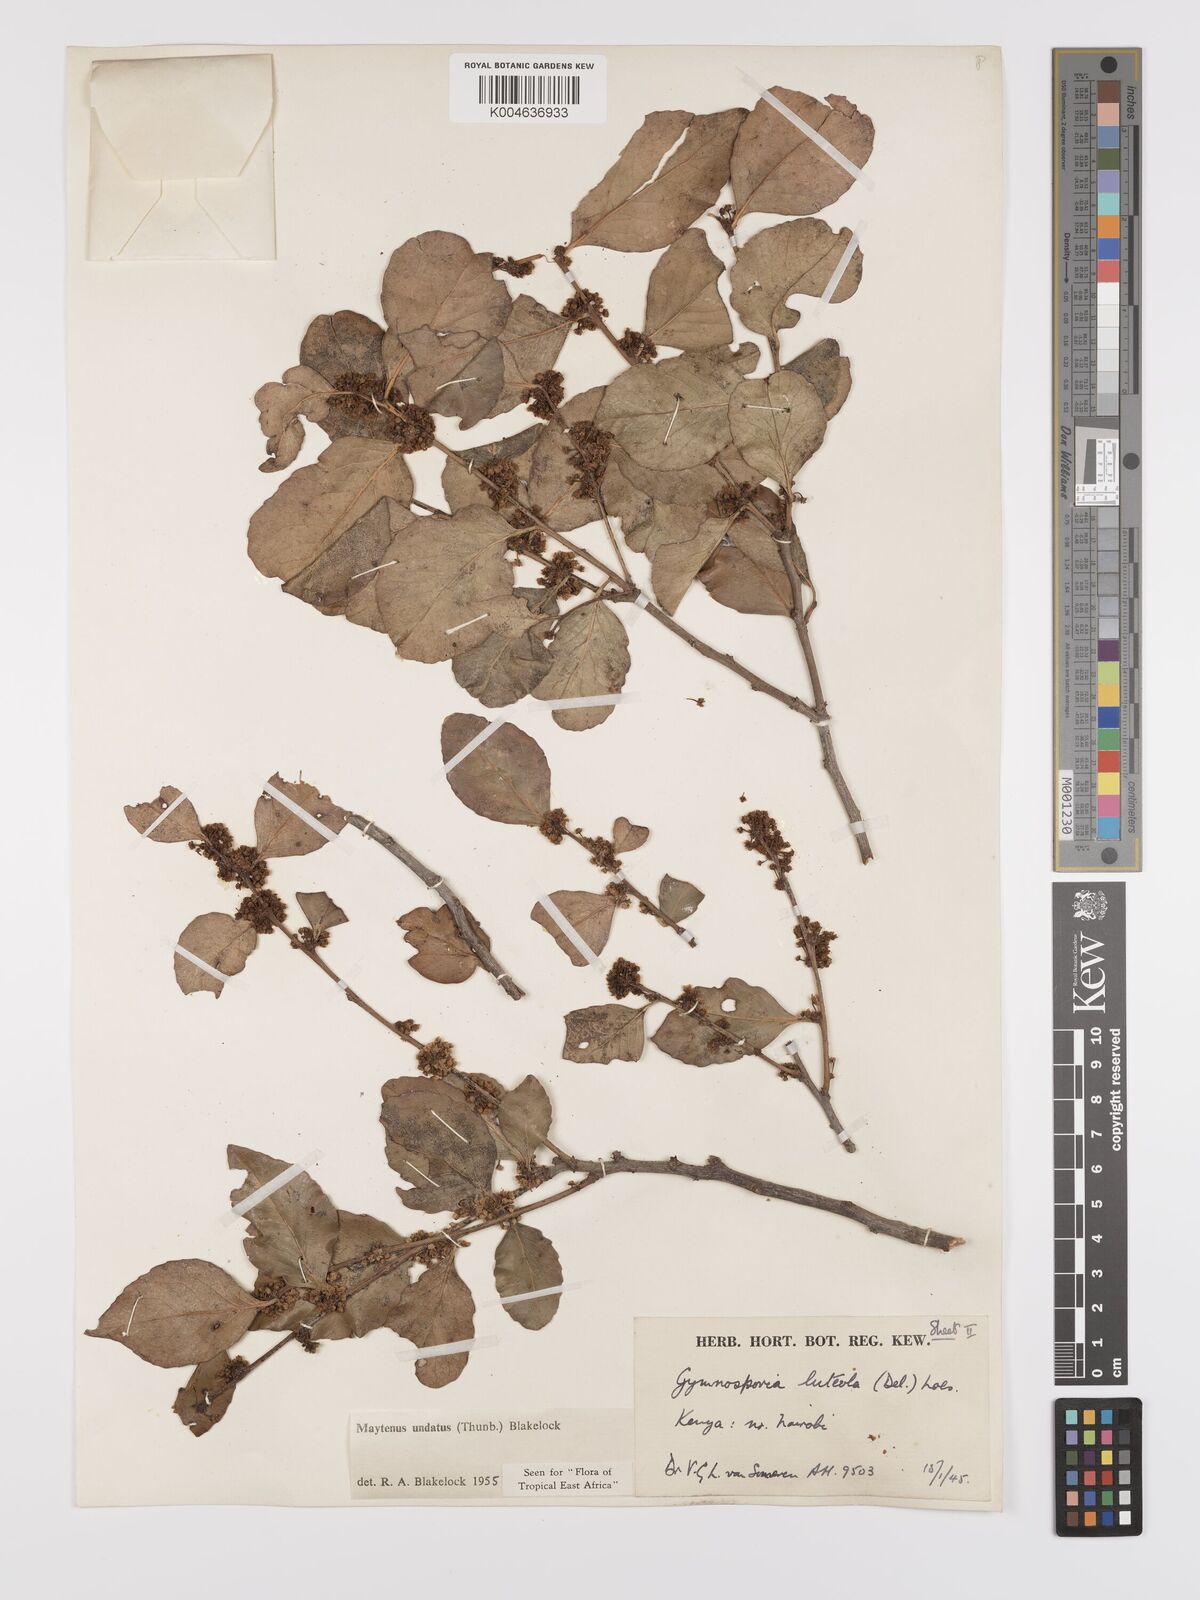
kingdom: Plantae
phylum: Tracheophyta
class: Magnoliopsida
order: Celastrales
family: Celastraceae
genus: Gymnosporia
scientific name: Gymnosporia undata
